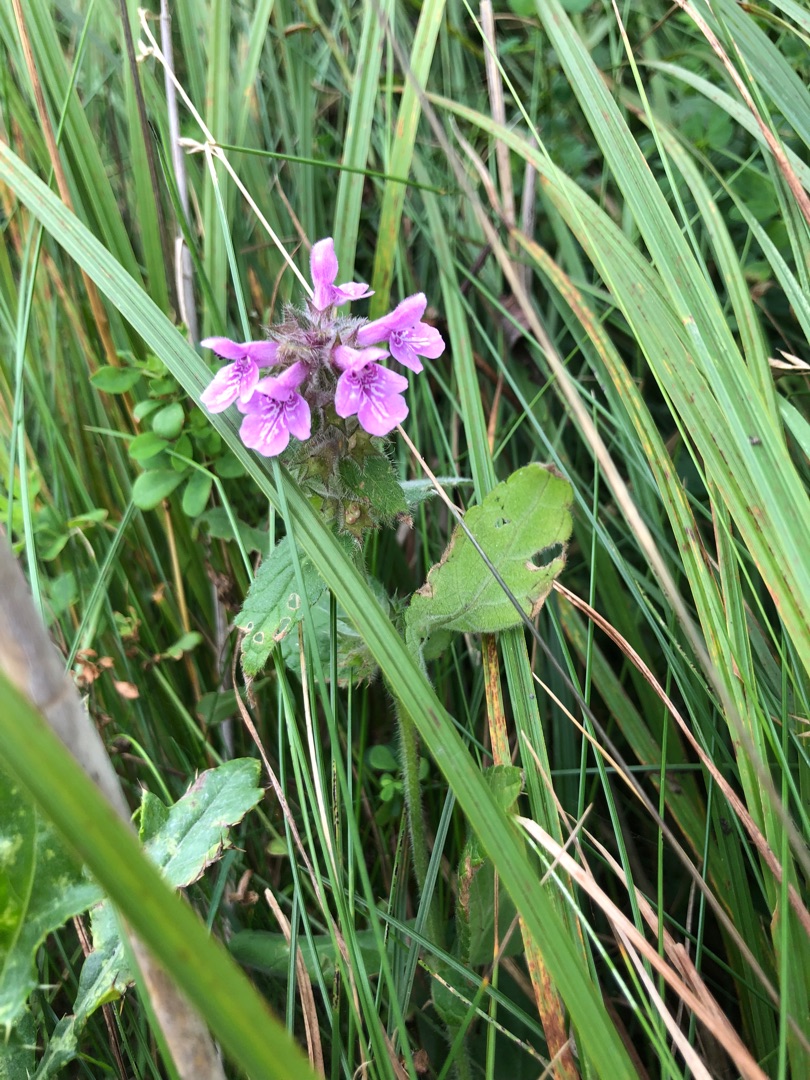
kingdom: Plantae
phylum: Tracheophyta
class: Magnoliopsida
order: Lamiales
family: Lamiaceae
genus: Stachys
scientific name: Stachys palustris
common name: Kær-galtetand
